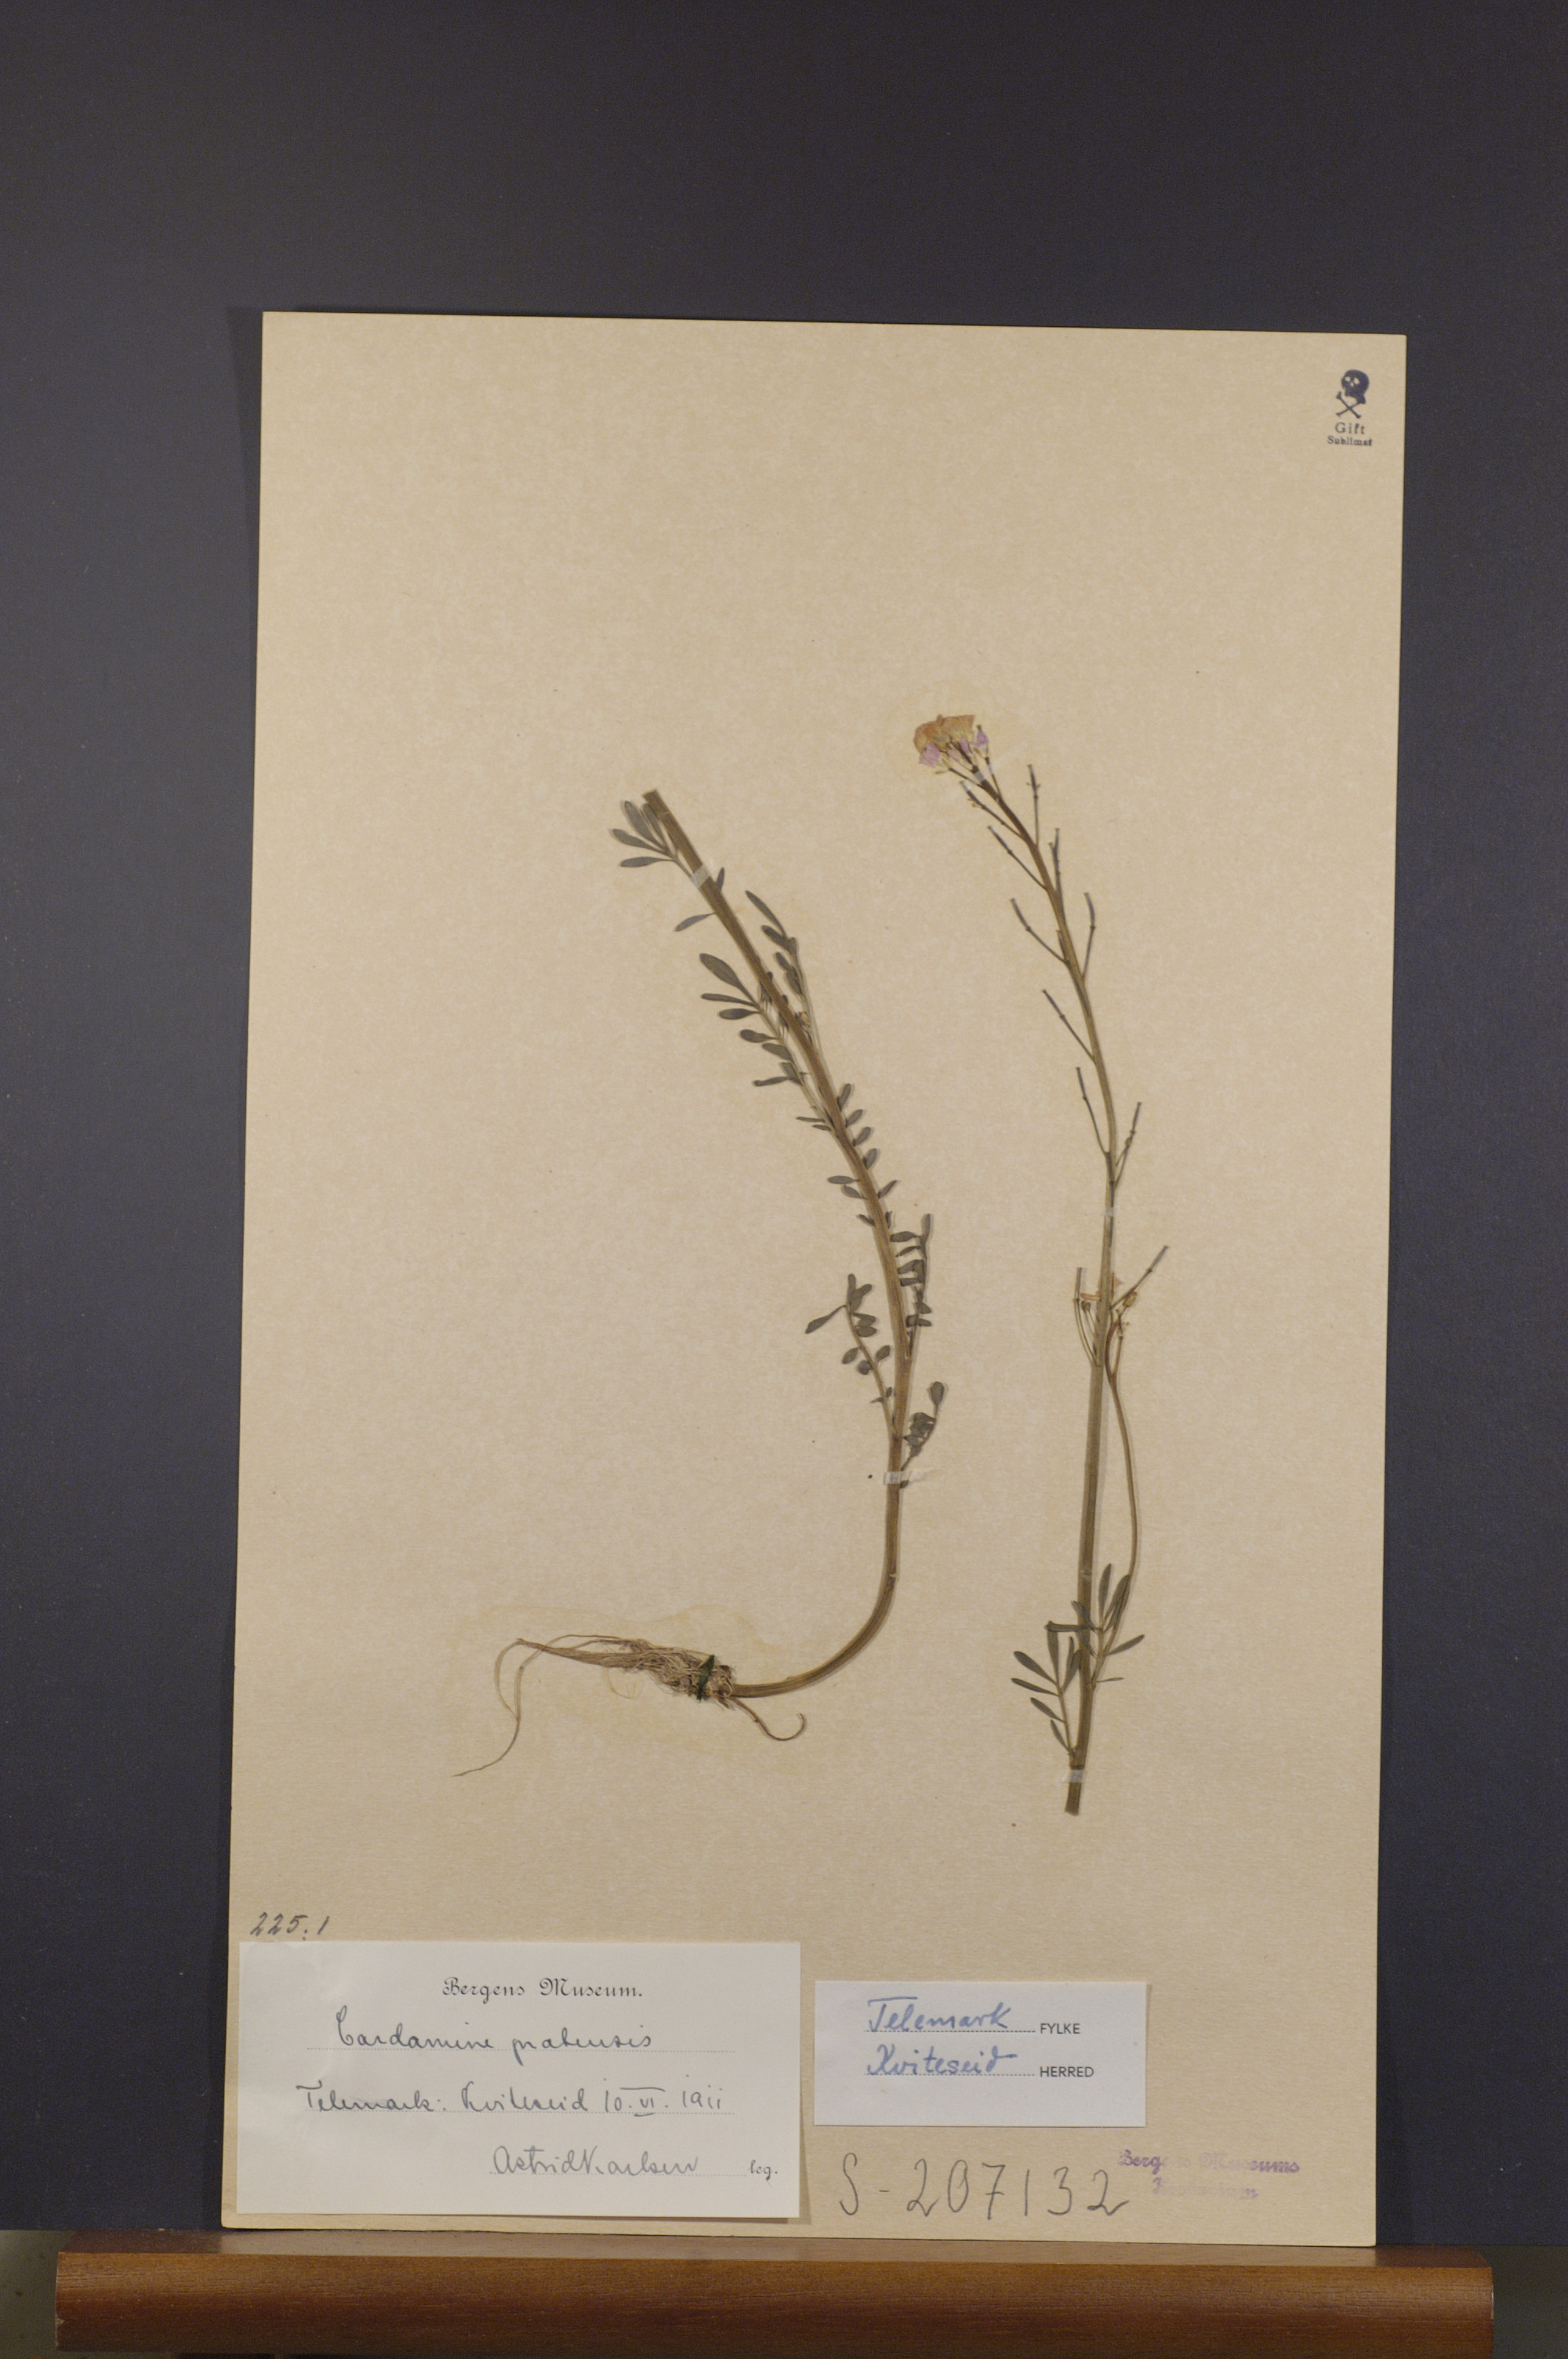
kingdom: Plantae
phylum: Tracheophyta
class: Magnoliopsida
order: Brassicales
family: Brassicaceae
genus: Cardamine
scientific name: Cardamine pratensis
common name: Cuckoo flower
